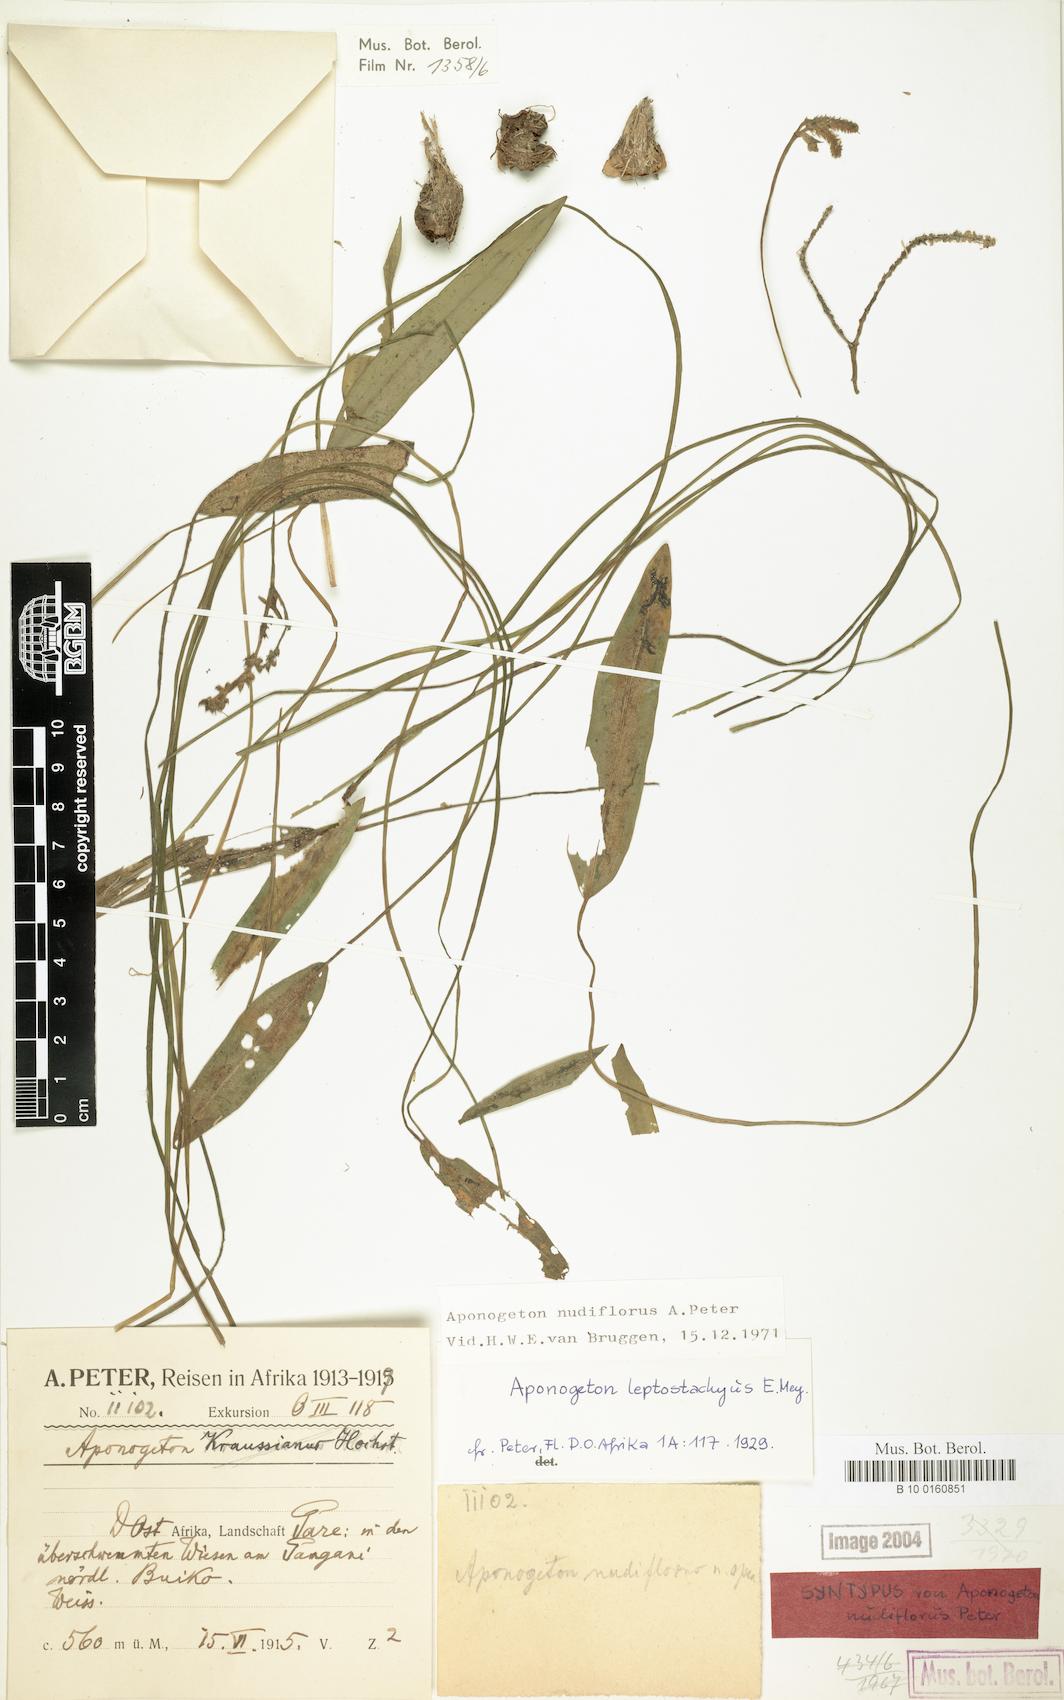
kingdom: Plantae
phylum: Tracheophyta
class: Liliopsida
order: Alismatales
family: Aponogetonaceae
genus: Aponogeton
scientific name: Aponogeton nudiflorus
